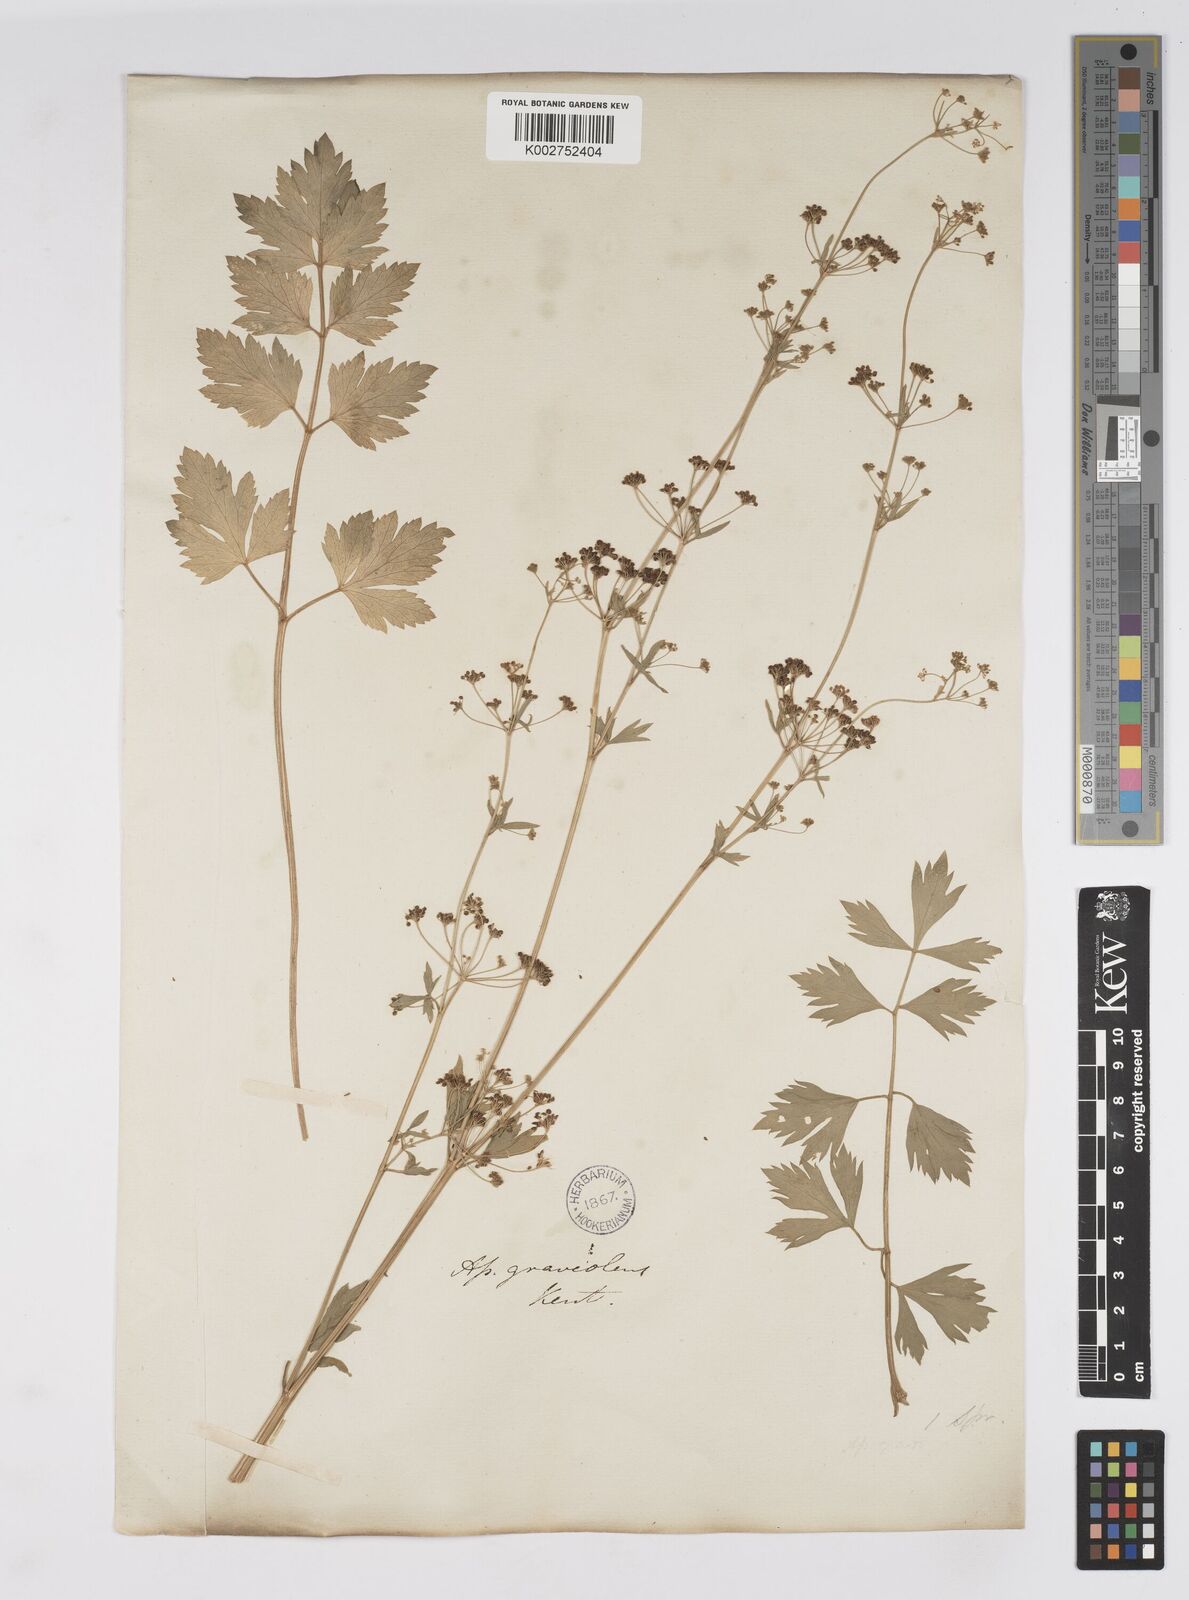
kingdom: Plantae
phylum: Tracheophyta
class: Magnoliopsida
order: Apiales
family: Apiaceae
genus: Apium
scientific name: Apium graveolens
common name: Wild celery
